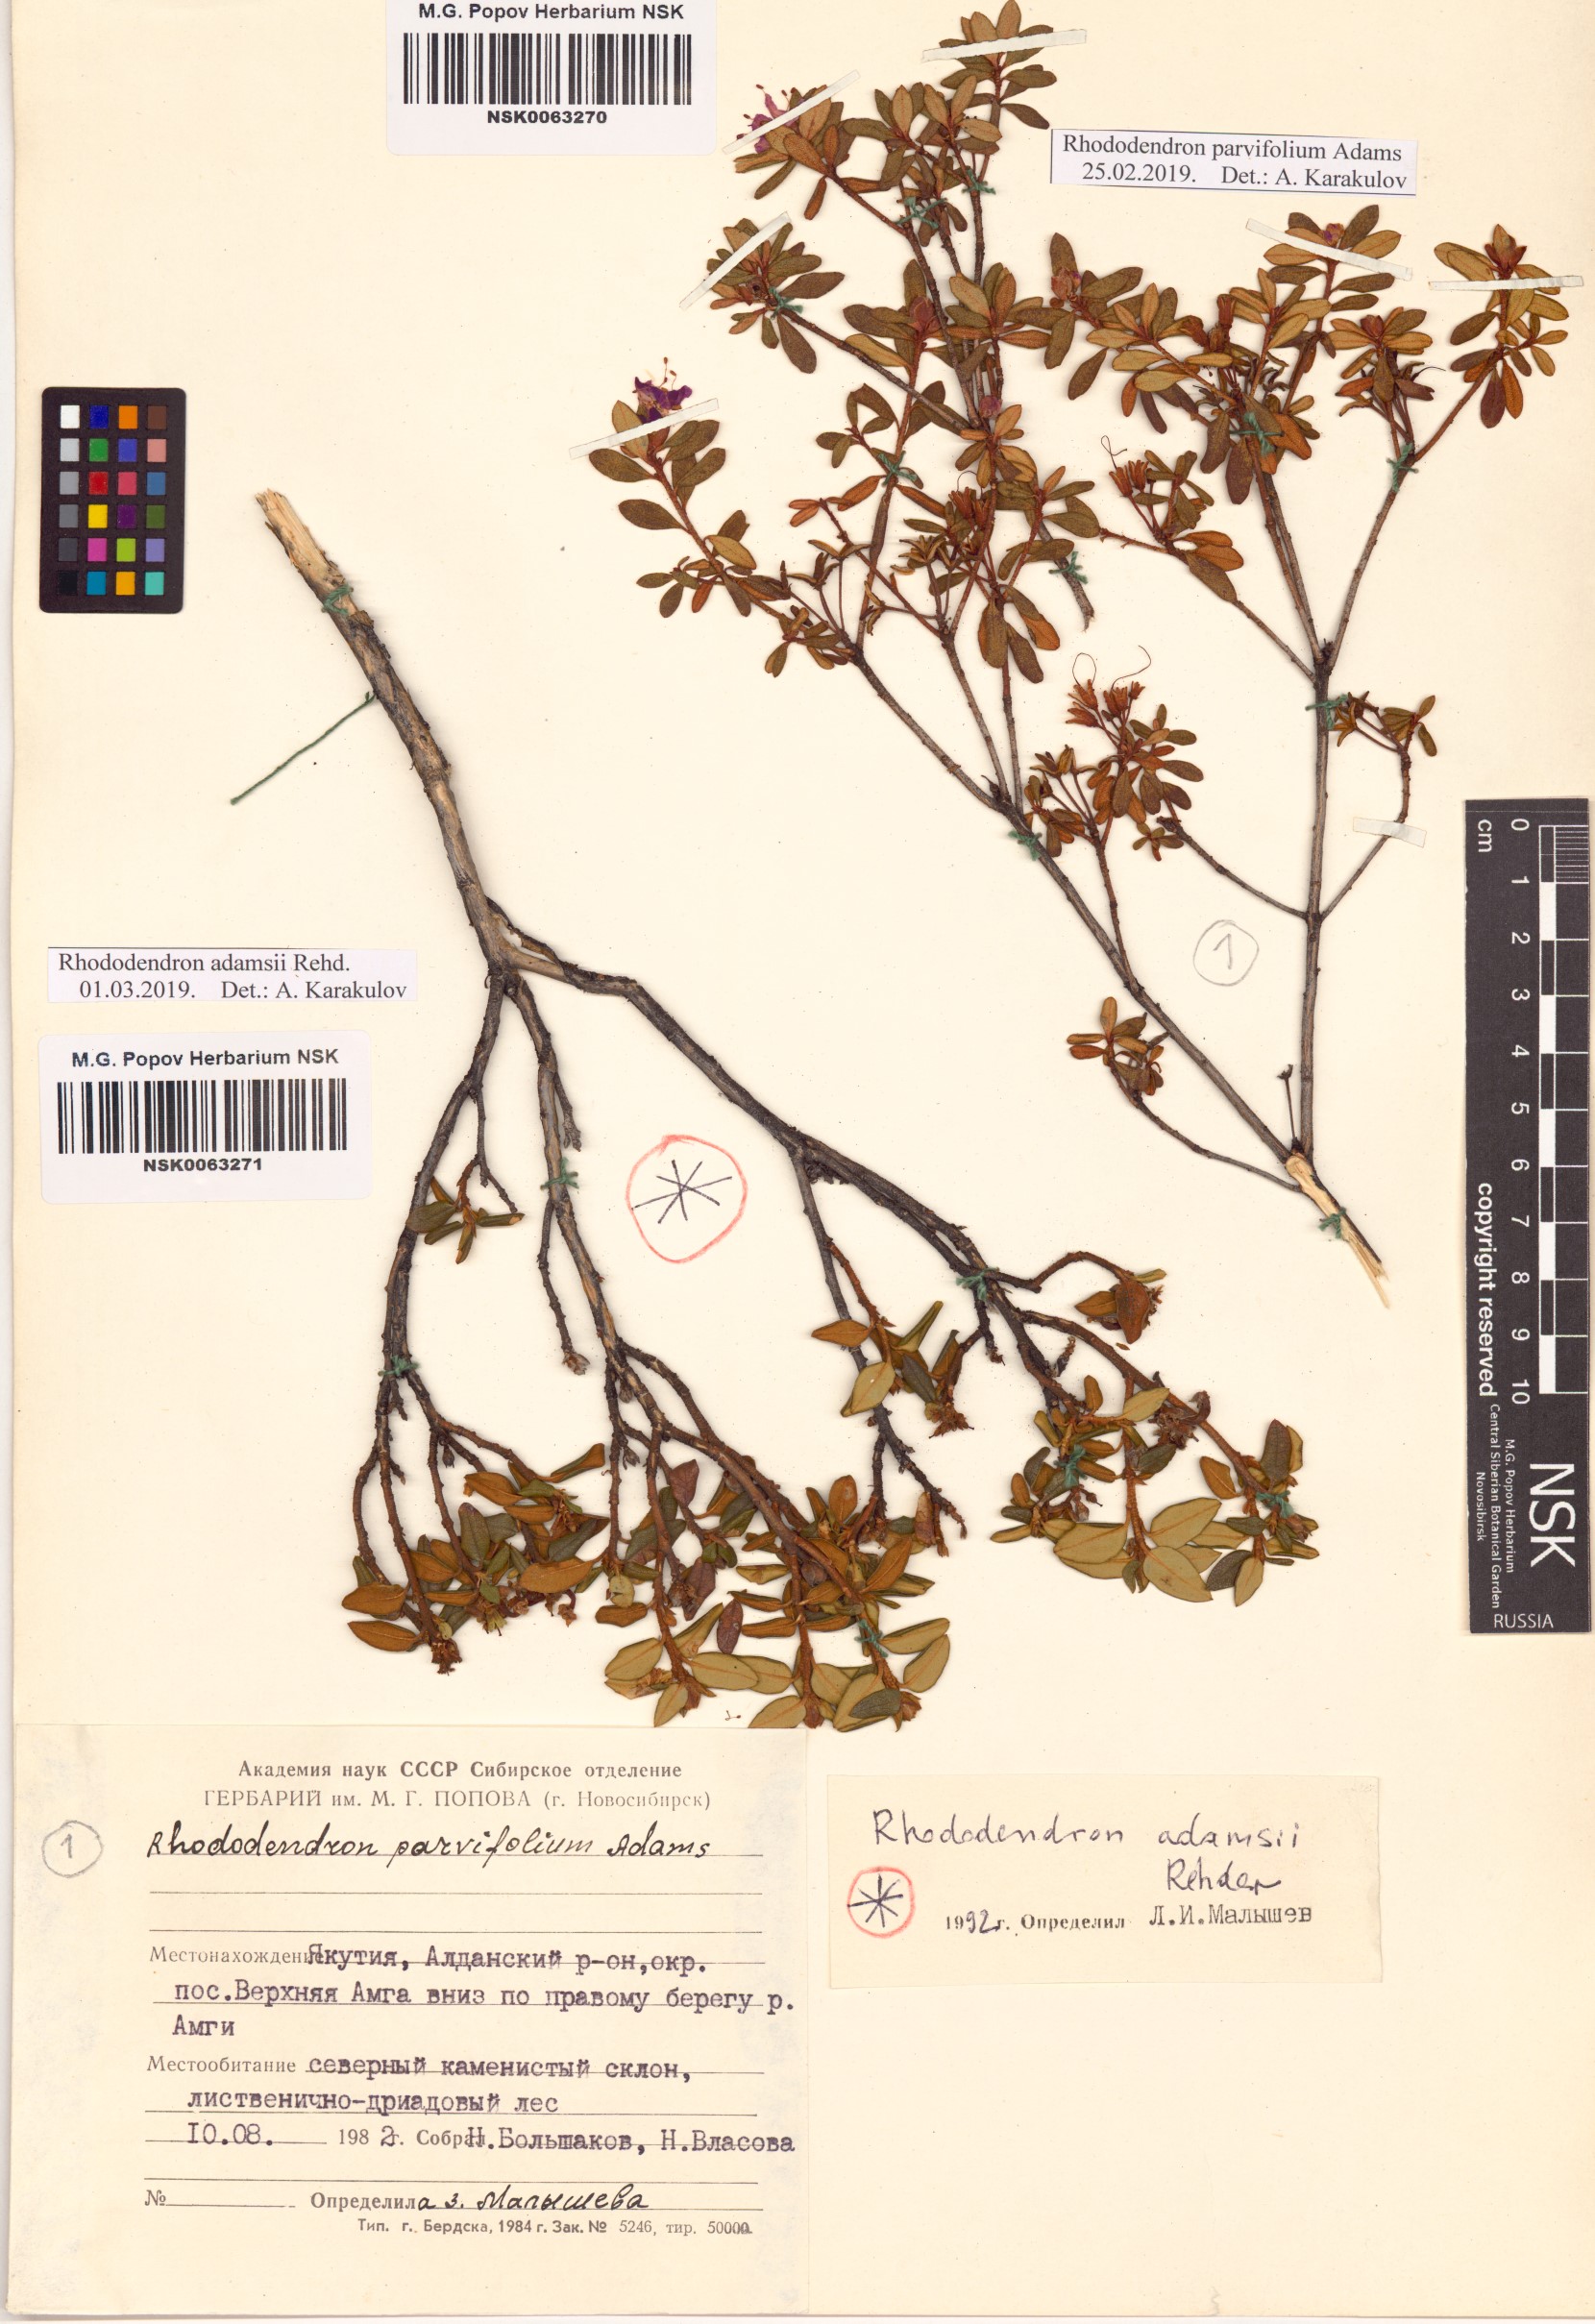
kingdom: Plantae
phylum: Tracheophyta
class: Magnoliopsida
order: Ericales
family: Ericaceae
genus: Rhododendron
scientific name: Rhododendron parvifolium
